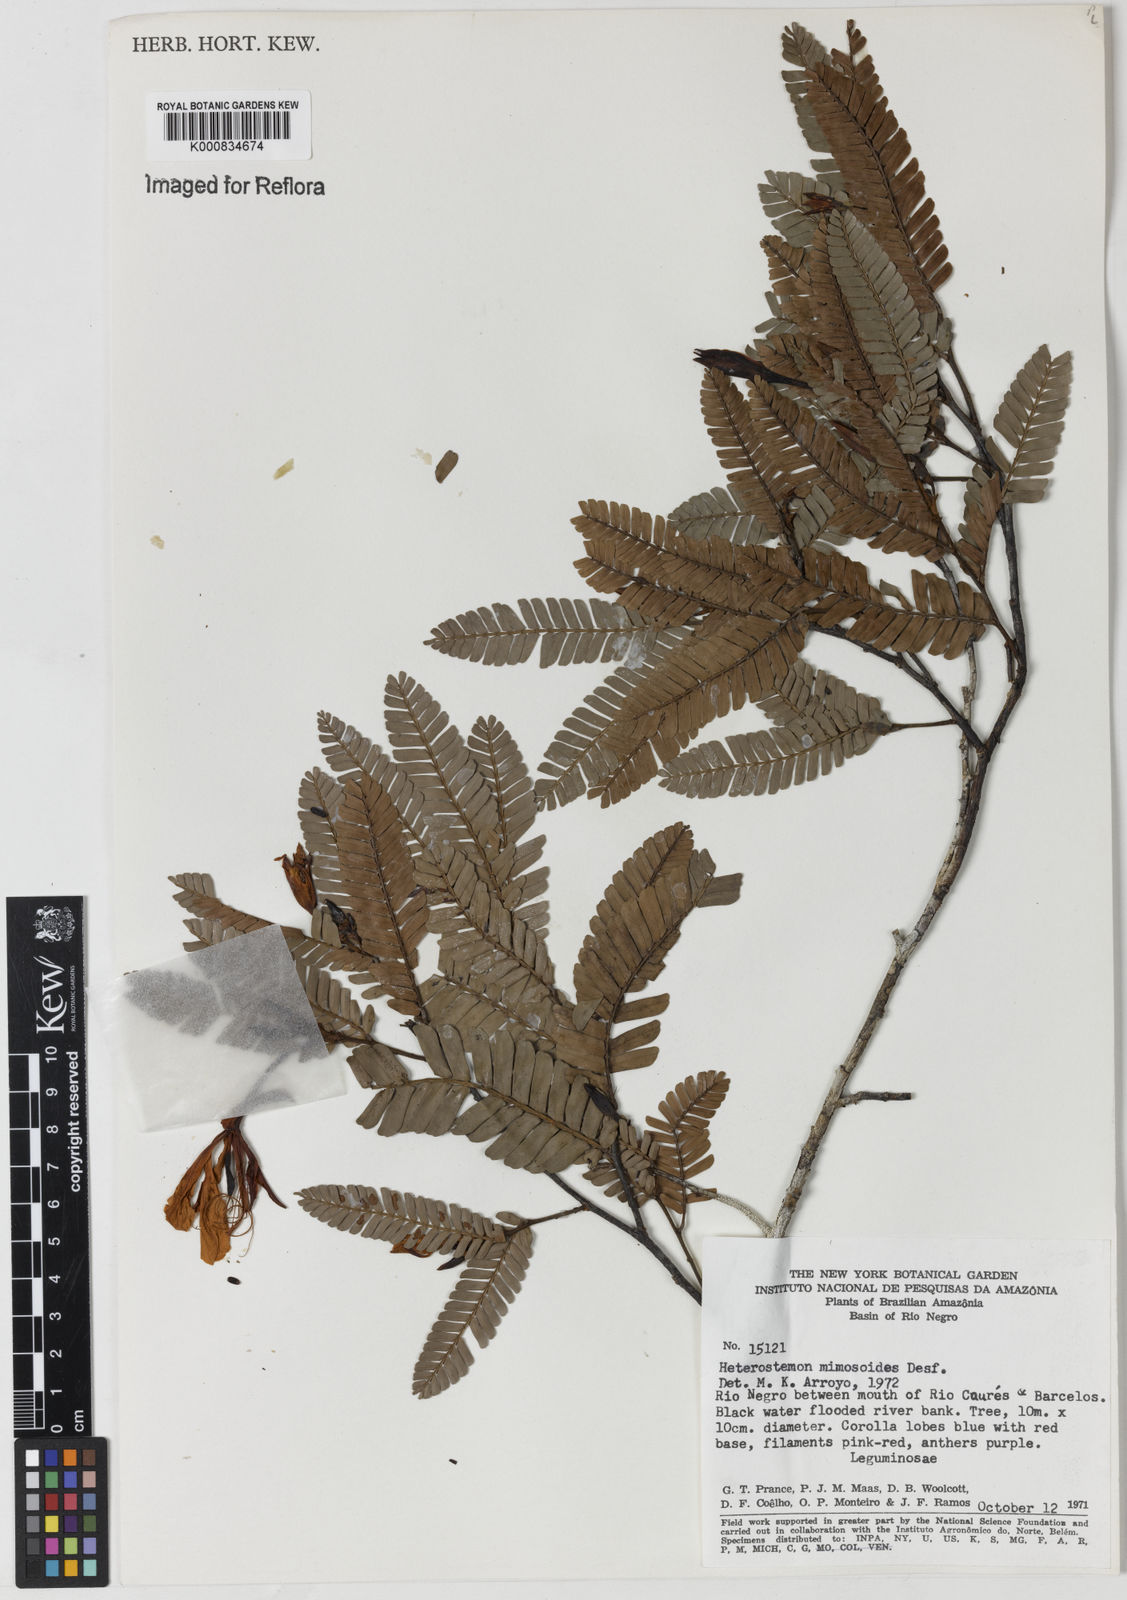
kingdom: Plantae
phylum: Tracheophyta
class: Magnoliopsida
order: Fabales
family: Fabaceae
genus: Heterostemon
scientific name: Heterostemon mimosoides
